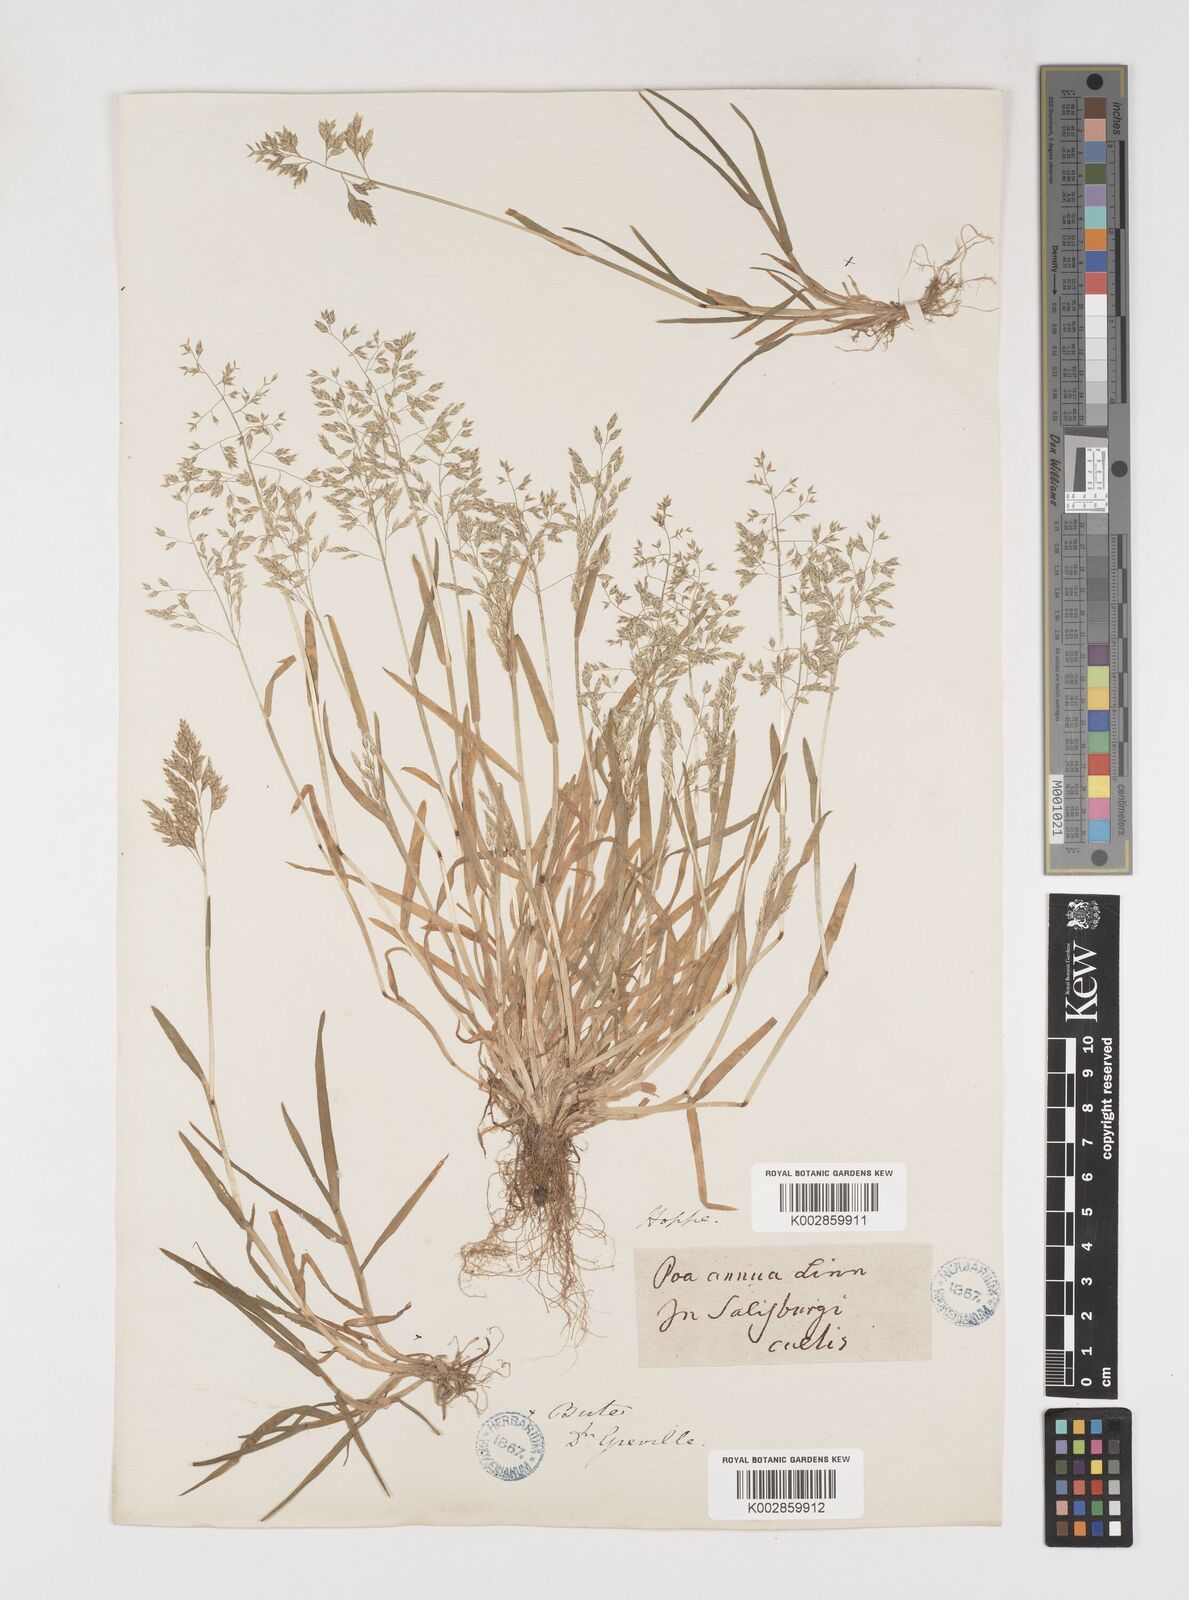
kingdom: Plantae
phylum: Tracheophyta
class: Liliopsida
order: Poales
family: Poaceae
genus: Poa
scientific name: Poa annua
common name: Annual bluegrass
